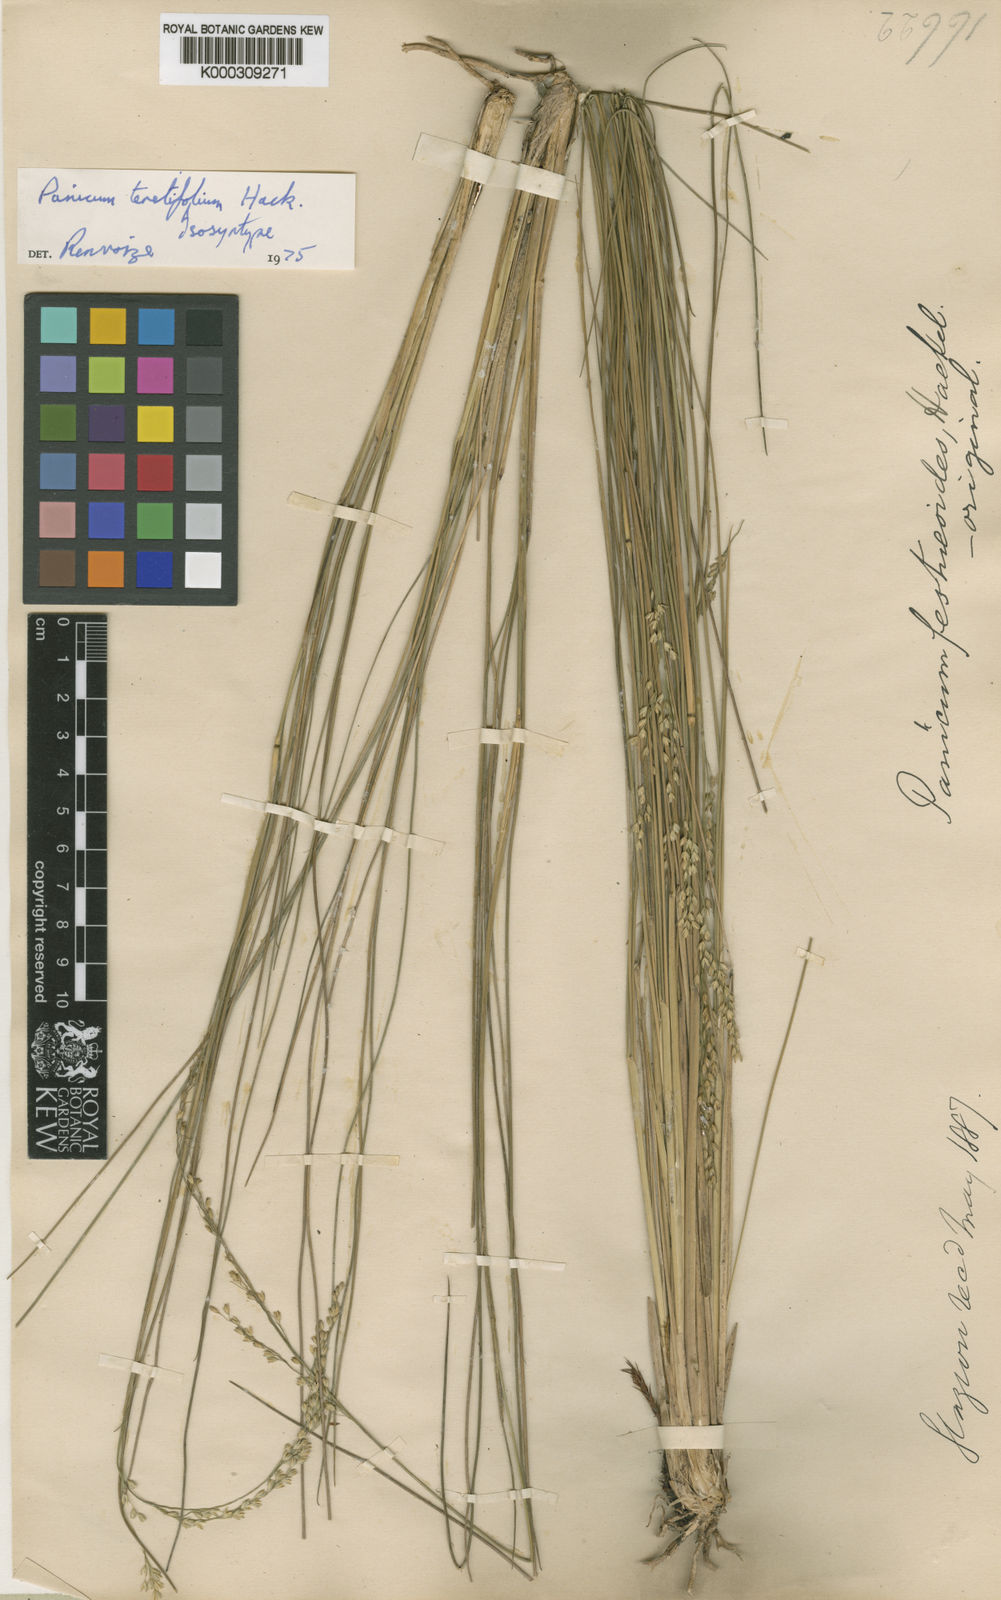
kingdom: Plantae
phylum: Tracheophyta
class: Liliopsida
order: Poales
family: Poaceae
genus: Renvoizea
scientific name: Renvoizea teretifolia
